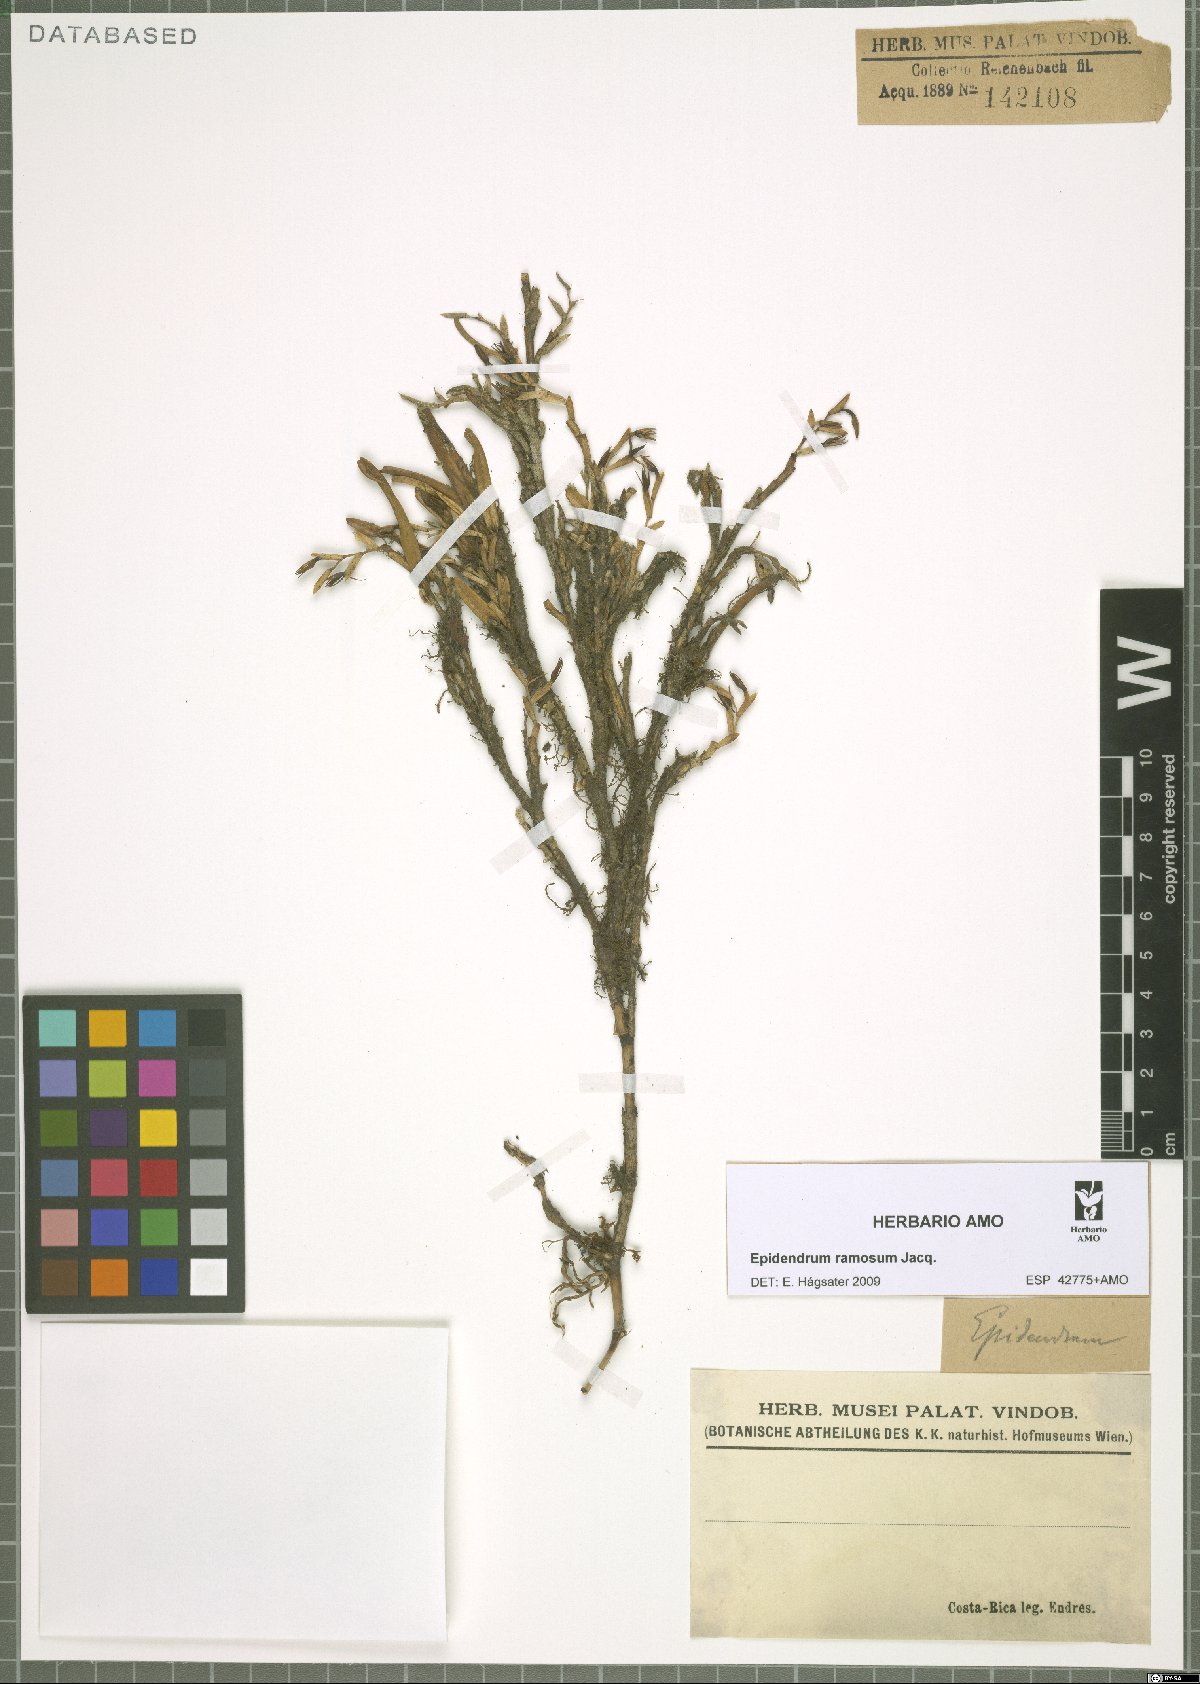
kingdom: Plantae
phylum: Tracheophyta
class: Liliopsida
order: Asparagales
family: Orchidaceae
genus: Epidendrum
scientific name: Epidendrum ramosum
